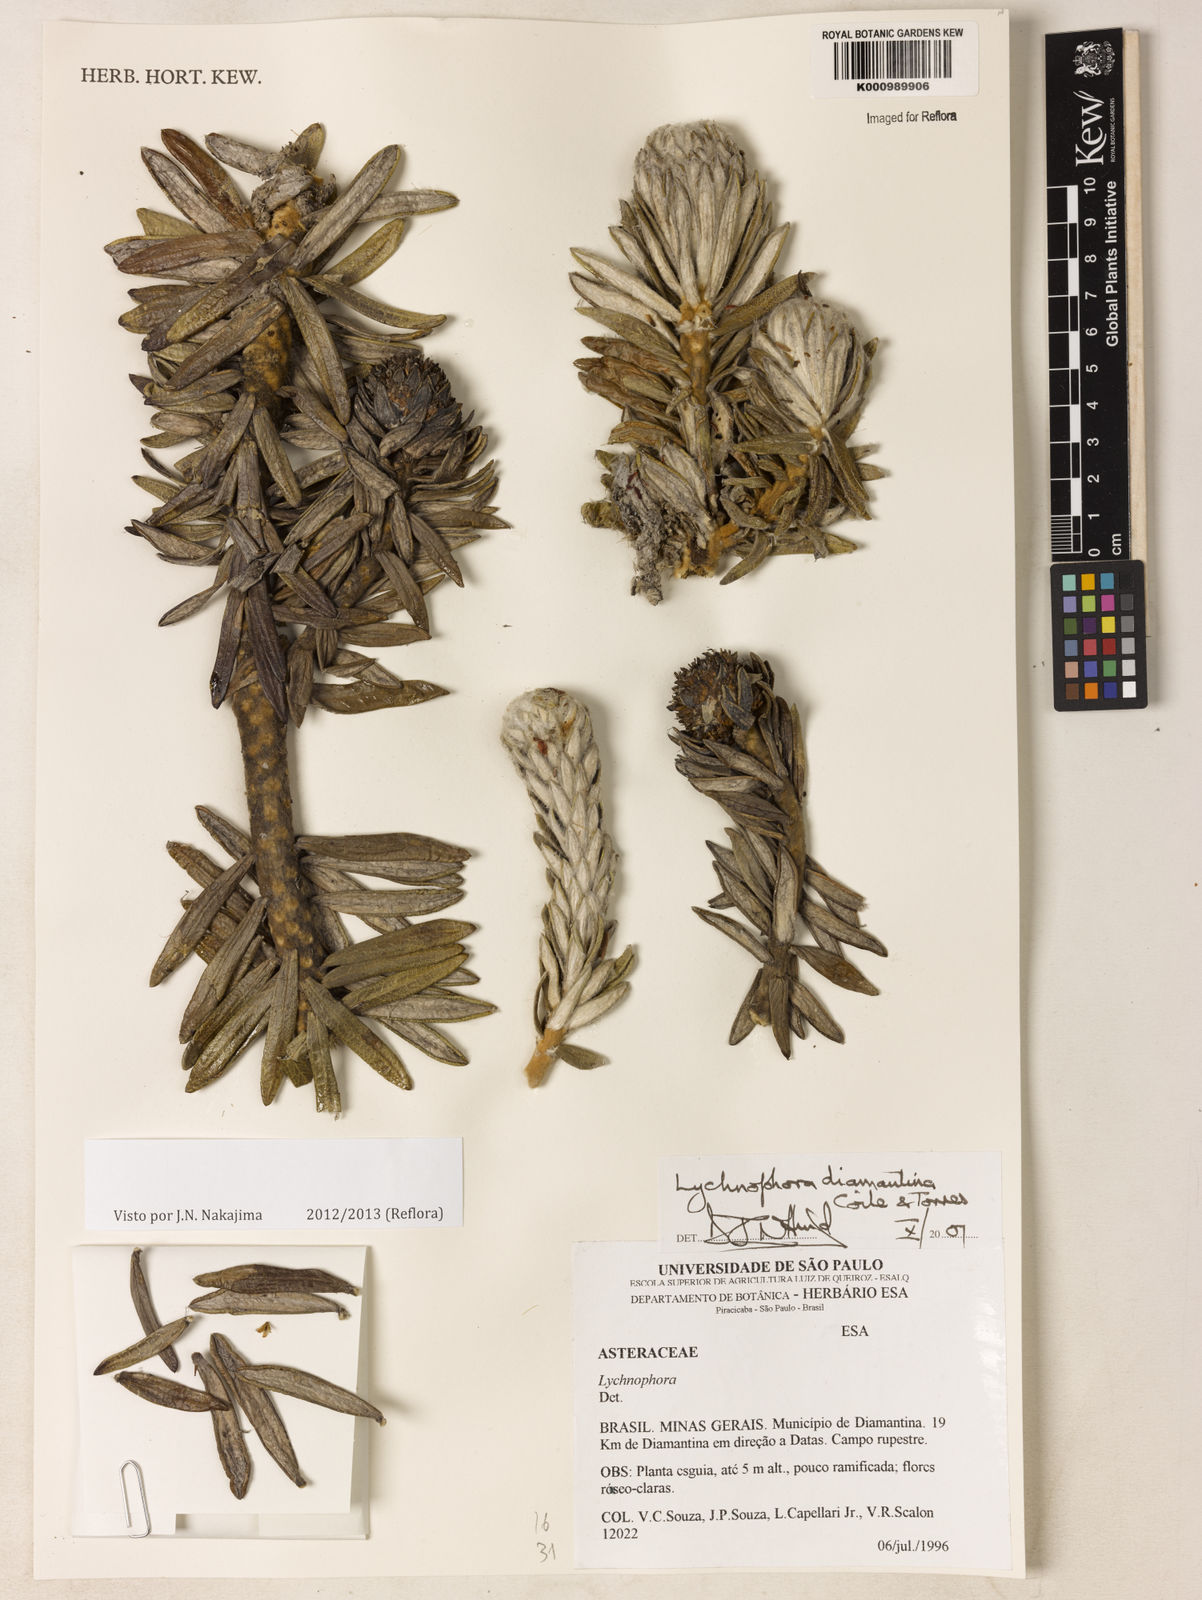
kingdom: Plantae
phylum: Tracheophyta
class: Magnoliopsida
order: Asterales
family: Asteraceae
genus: Lychnophora
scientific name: Lychnophora diamantinana
